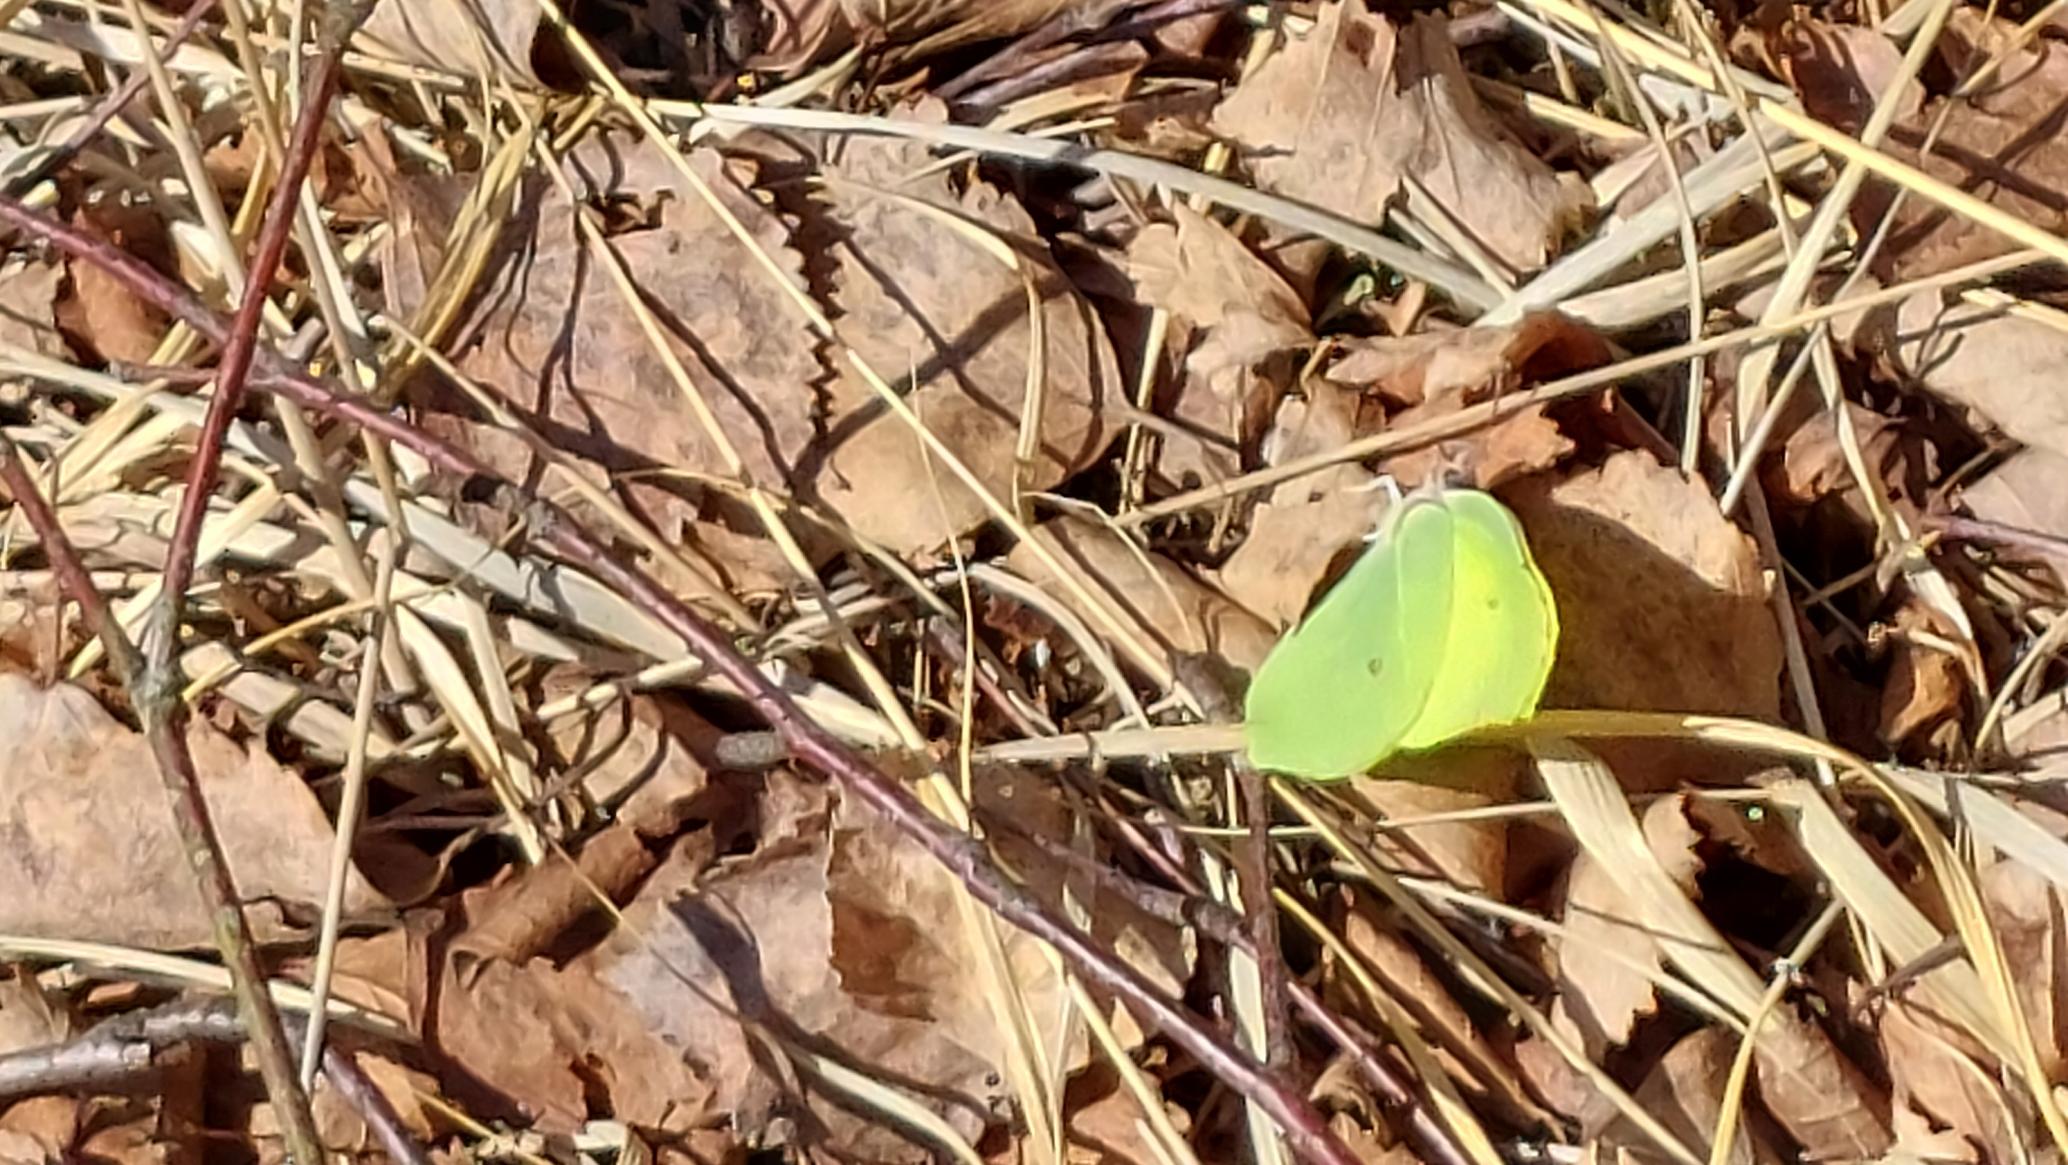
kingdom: Animalia
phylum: Arthropoda
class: Insecta
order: Lepidoptera
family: Pieridae
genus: Gonepteryx
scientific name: Gonepteryx rhamni
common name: Citronsommerfugl
